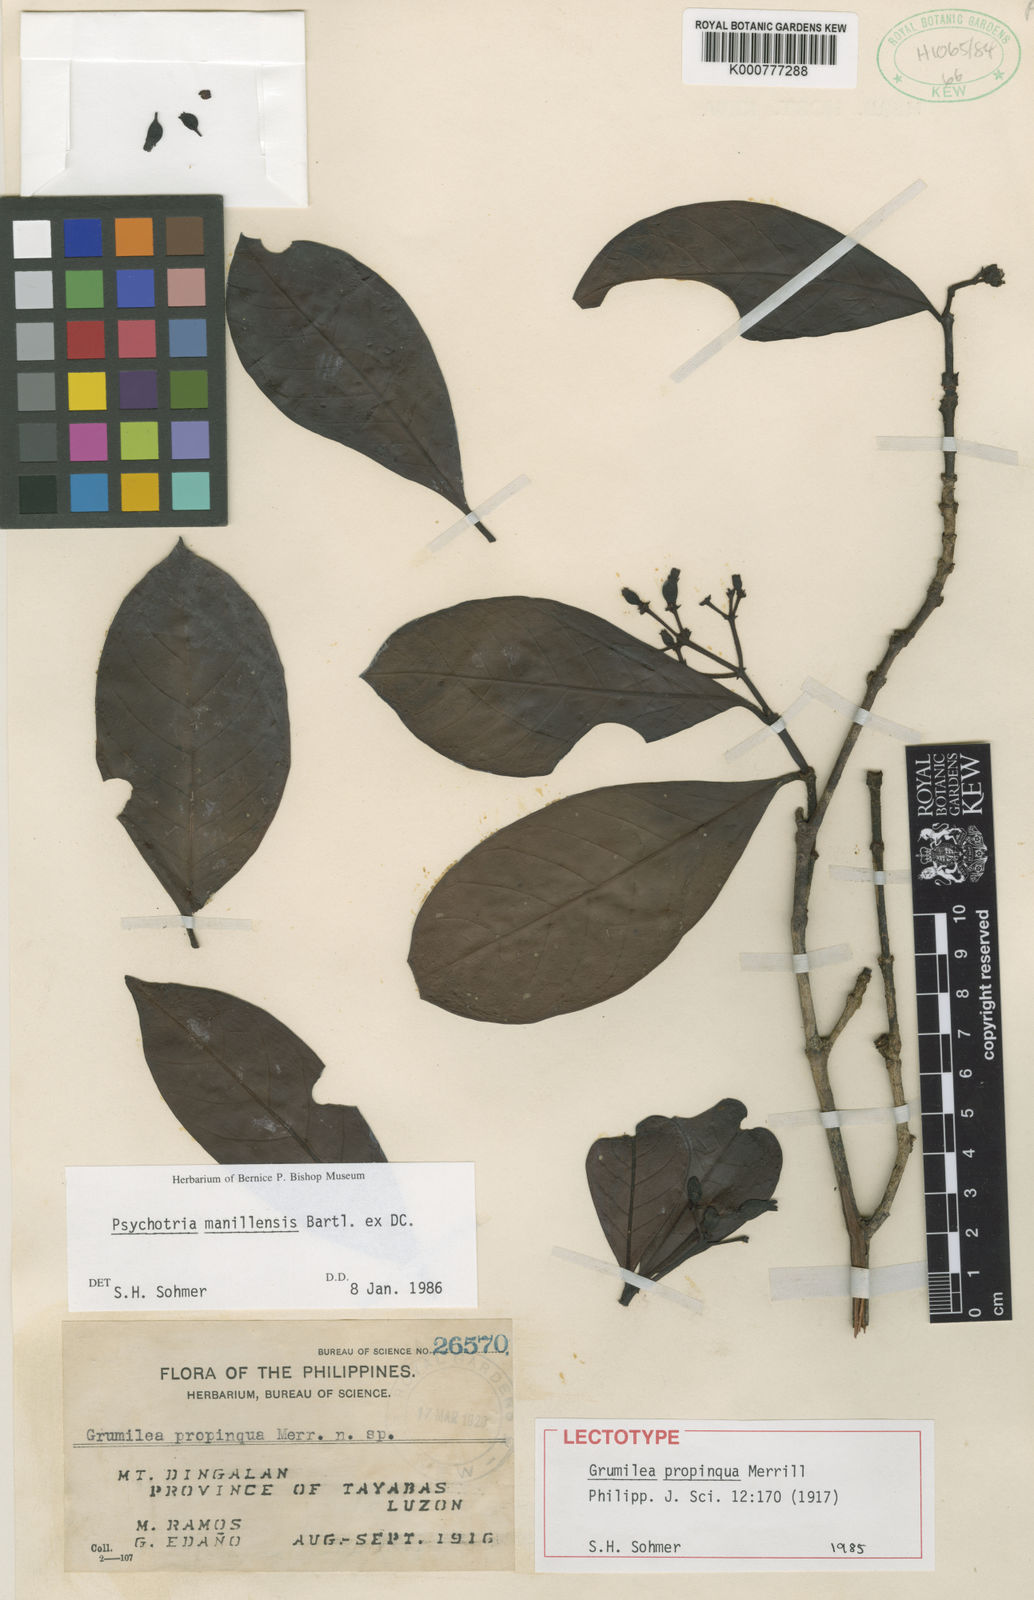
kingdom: Plantae
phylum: Tracheophyta
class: Magnoliopsida
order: Gentianales
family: Rubiaceae
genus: Psychotria
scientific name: Psychotria manillensis
